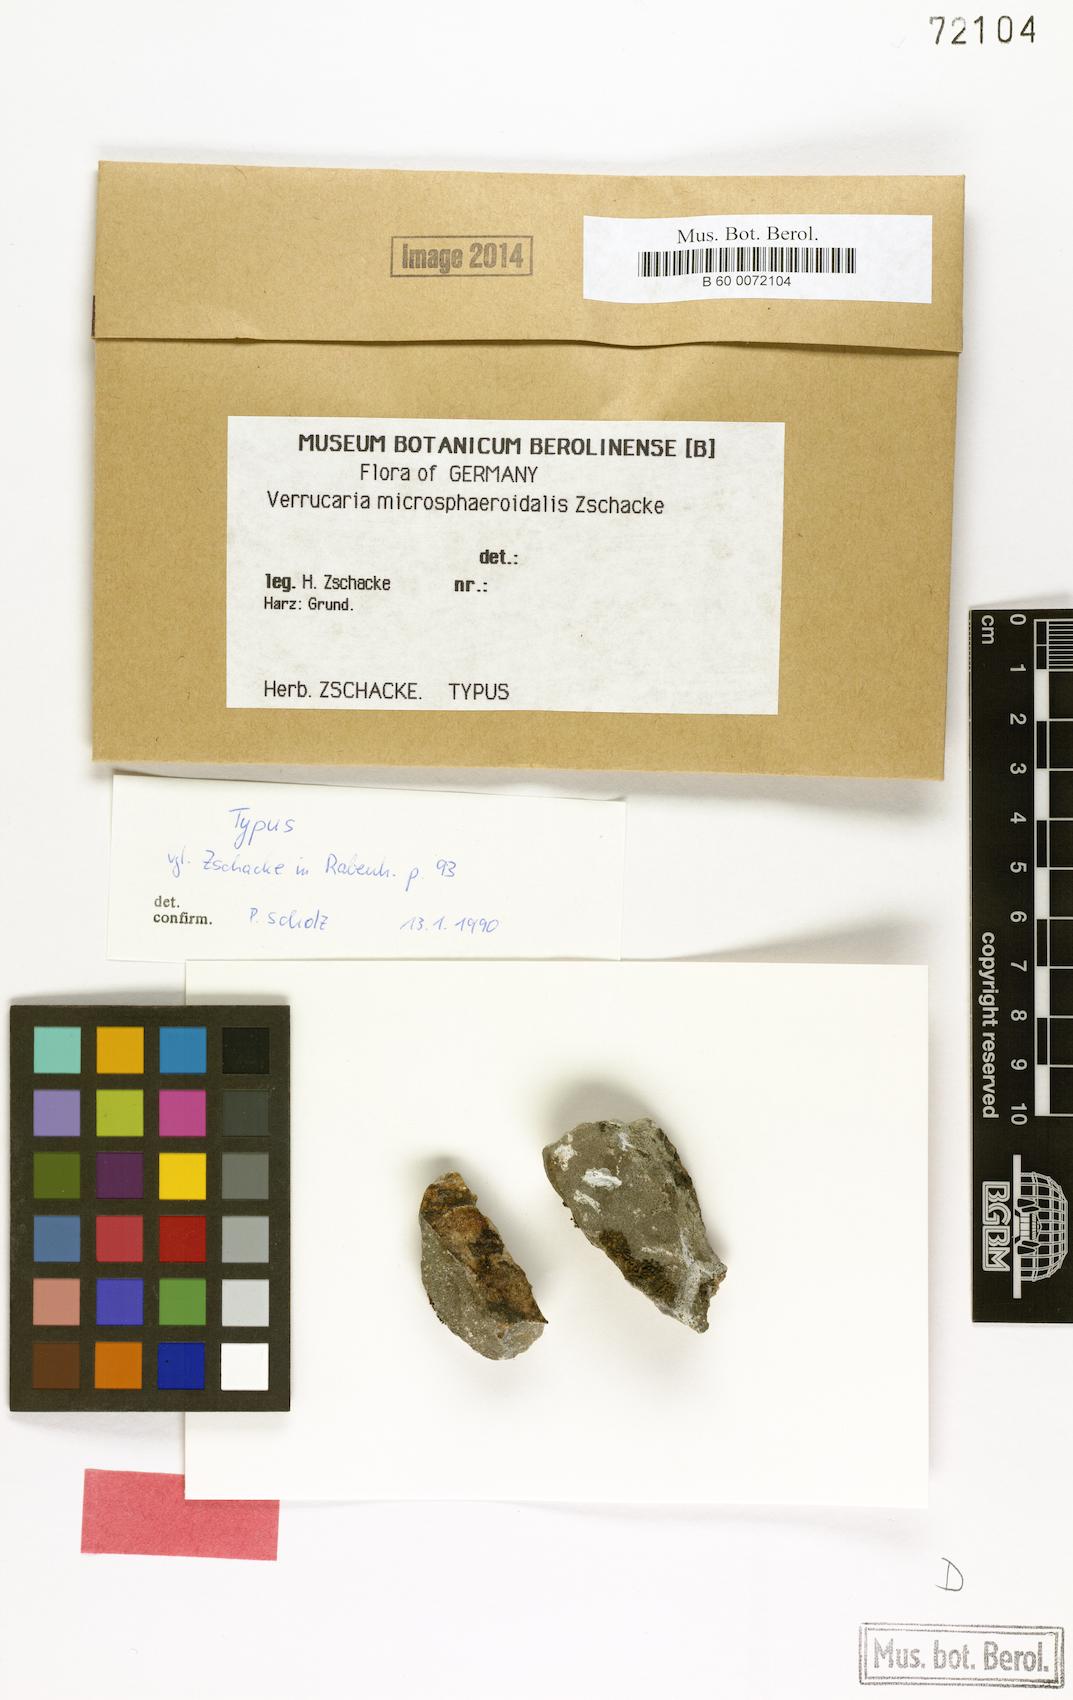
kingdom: Fungi
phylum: Ascomycota
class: Eurotiomycetes
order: Verrucariales
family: Verrucariaceae
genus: Verrucaria
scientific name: Verrucaria
